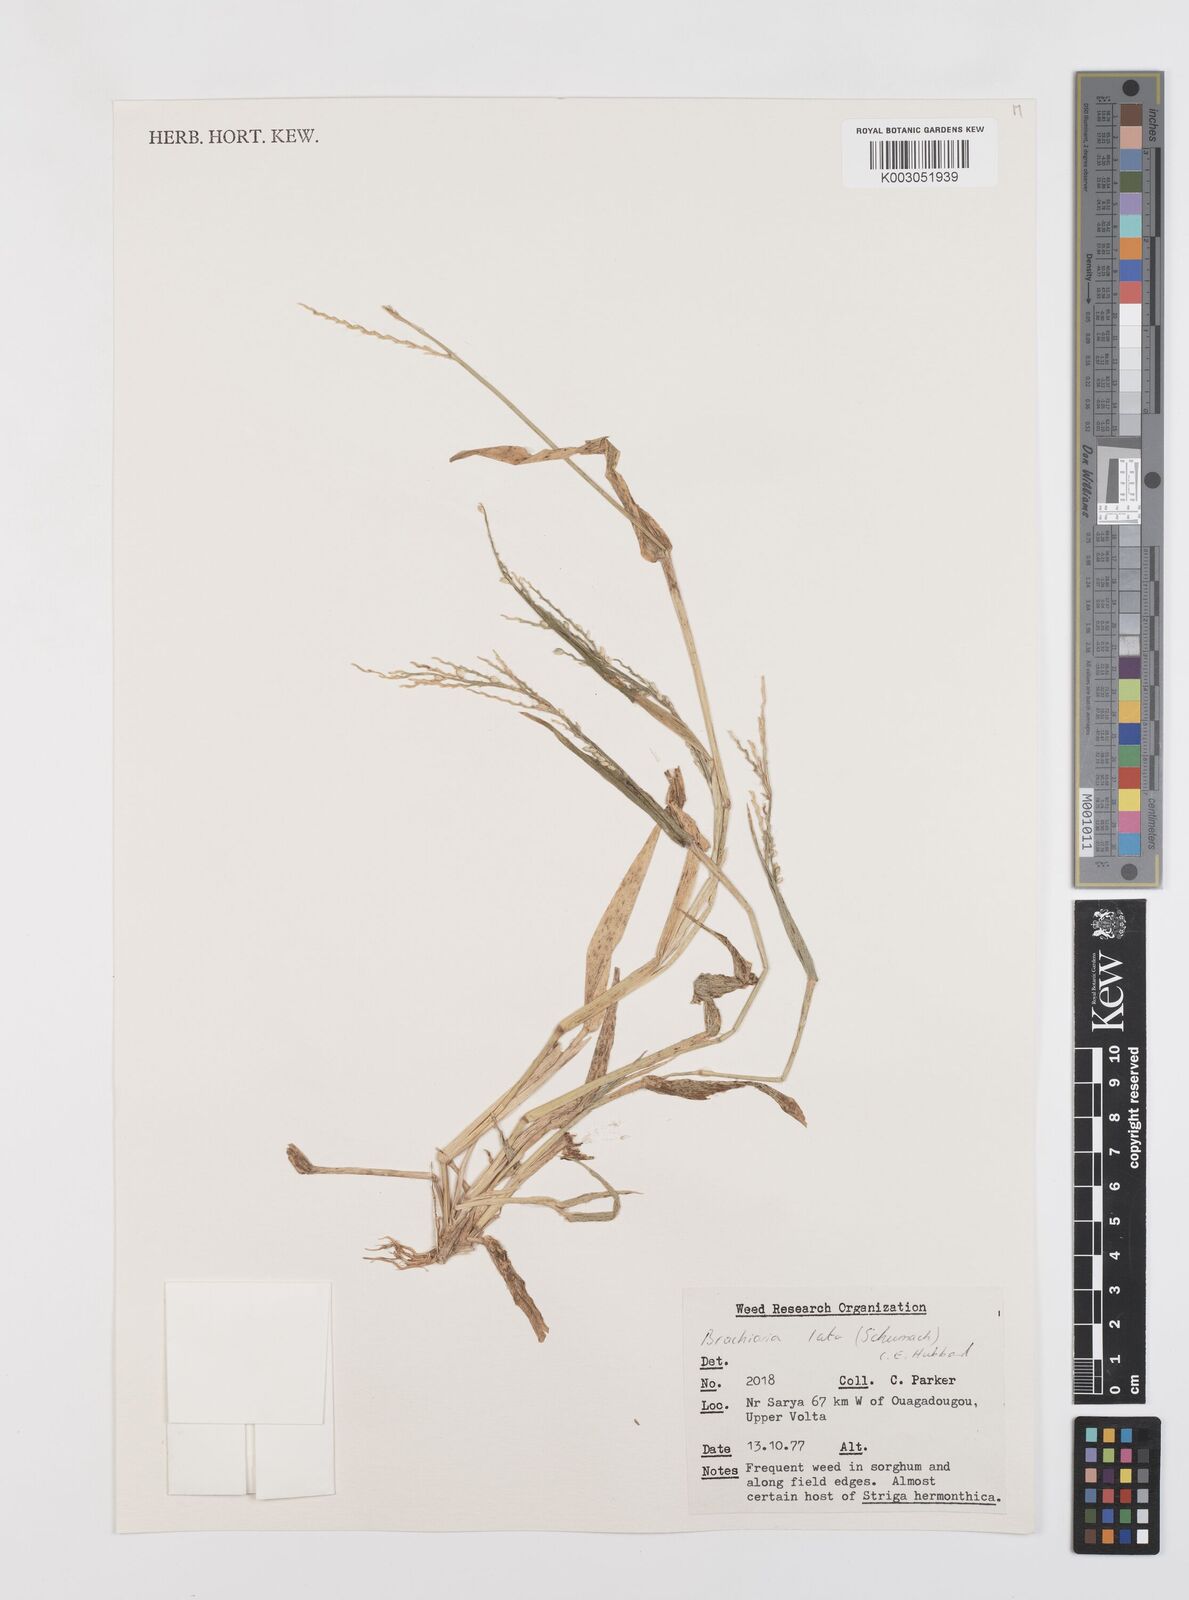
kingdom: Plantae
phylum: Tracheophyta
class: Liliopsida
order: Poales
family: Poaceae
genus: Urochloa
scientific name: Urochloa lata
